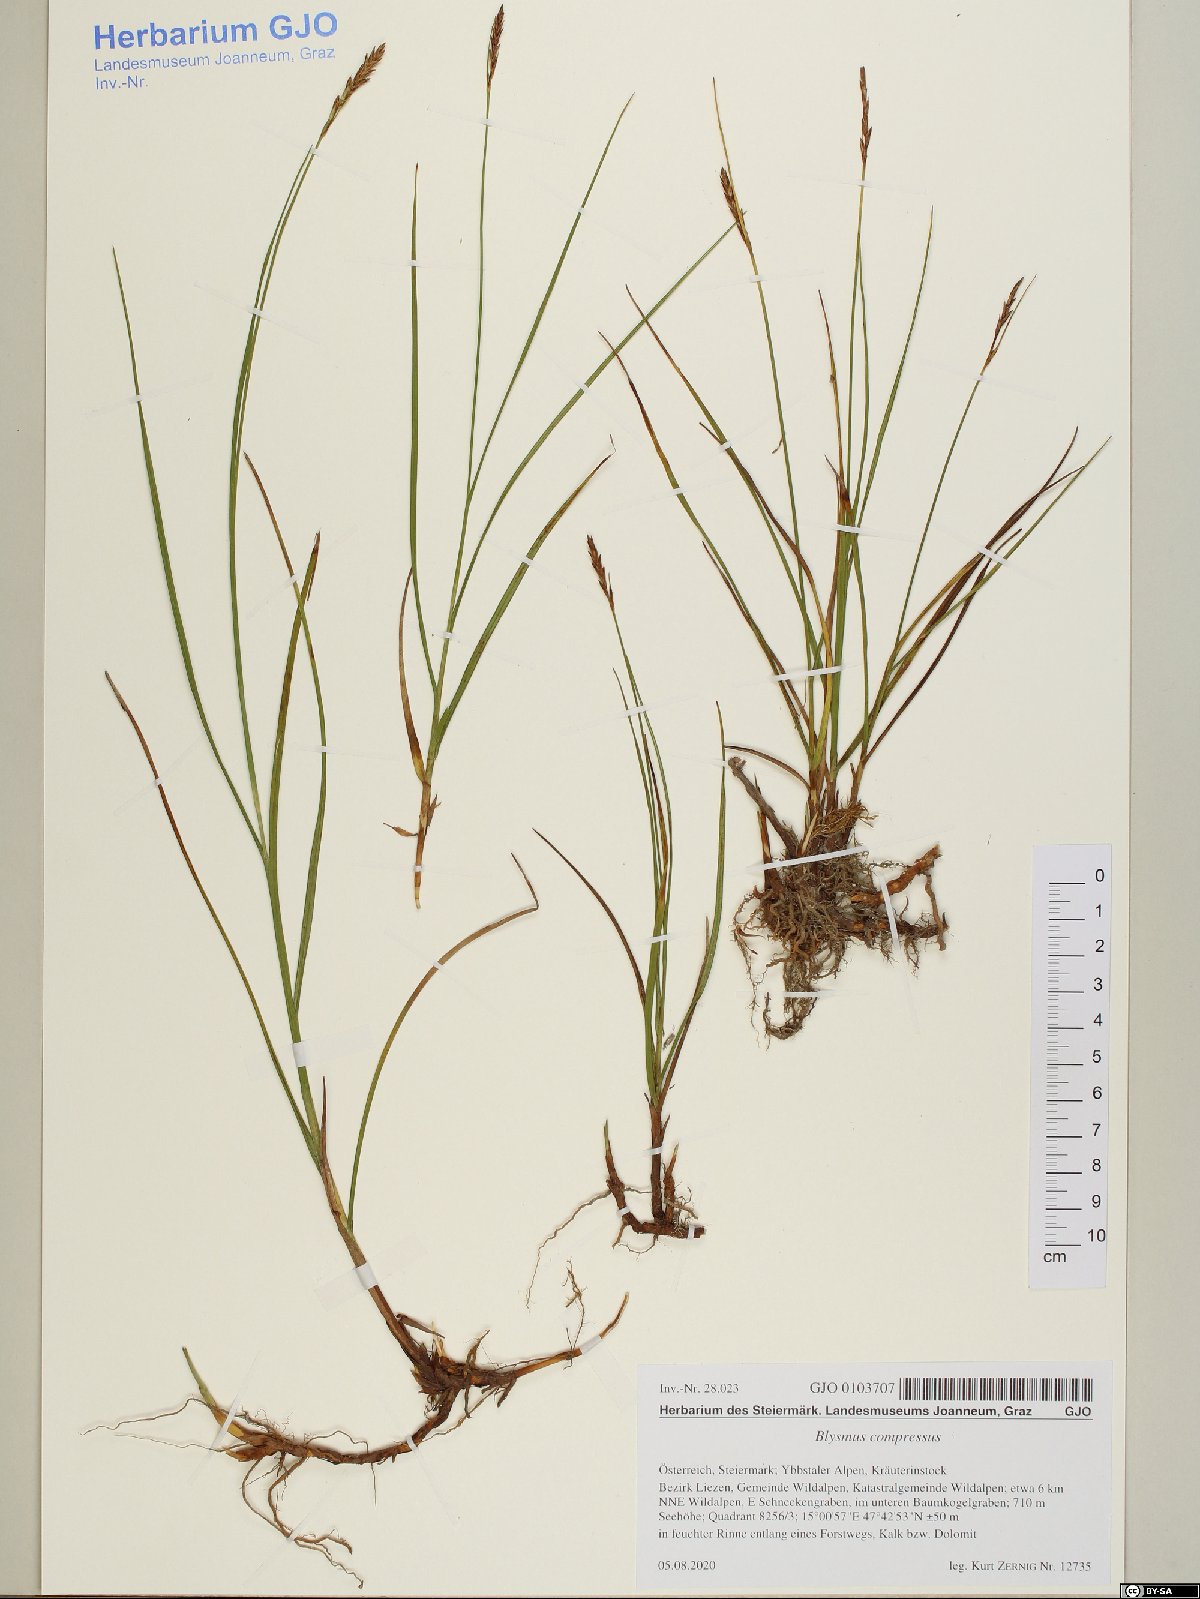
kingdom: Plantae
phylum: Tracheophyta
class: Liliopsida
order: Poales
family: Cyperaceae
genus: Blysmus
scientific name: Blysmus compressus
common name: Flat-sedge
